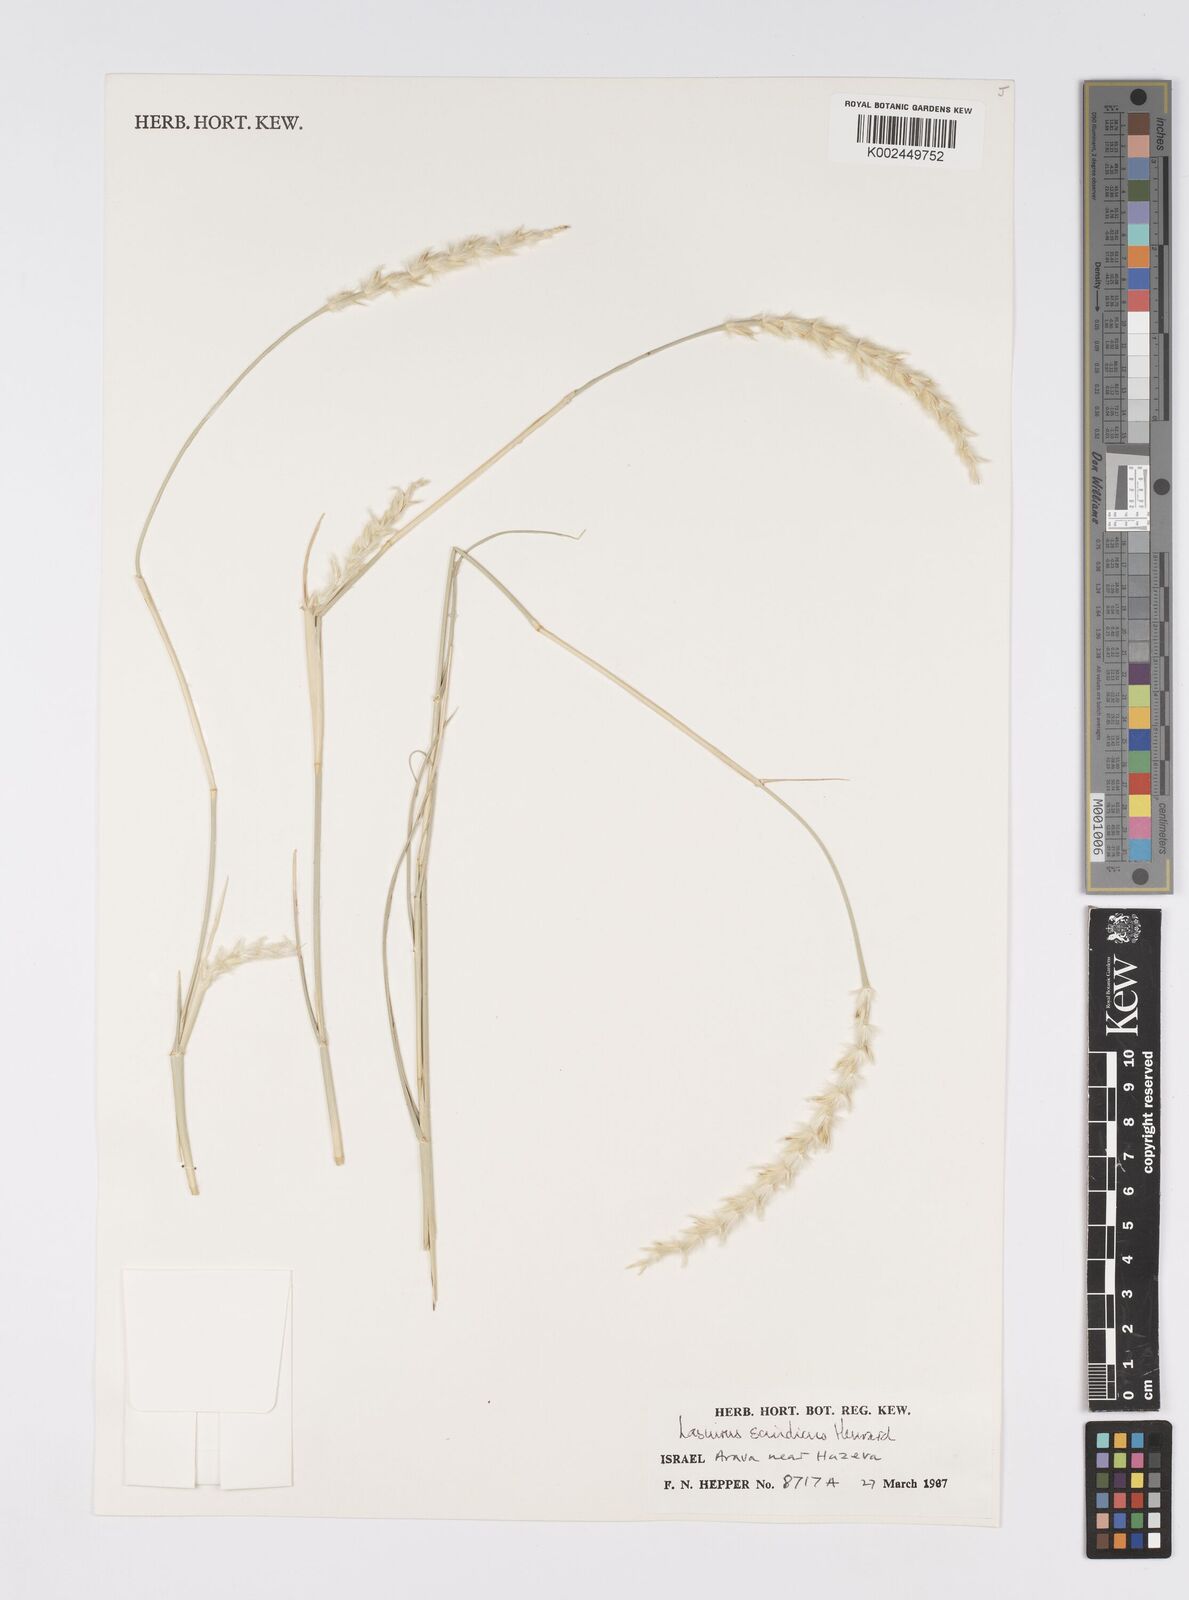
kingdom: Plantae
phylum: Tracheophyta
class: Liliopsida
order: Poales
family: Poaceae
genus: Lasiurus
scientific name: Lasiurus scindicus
